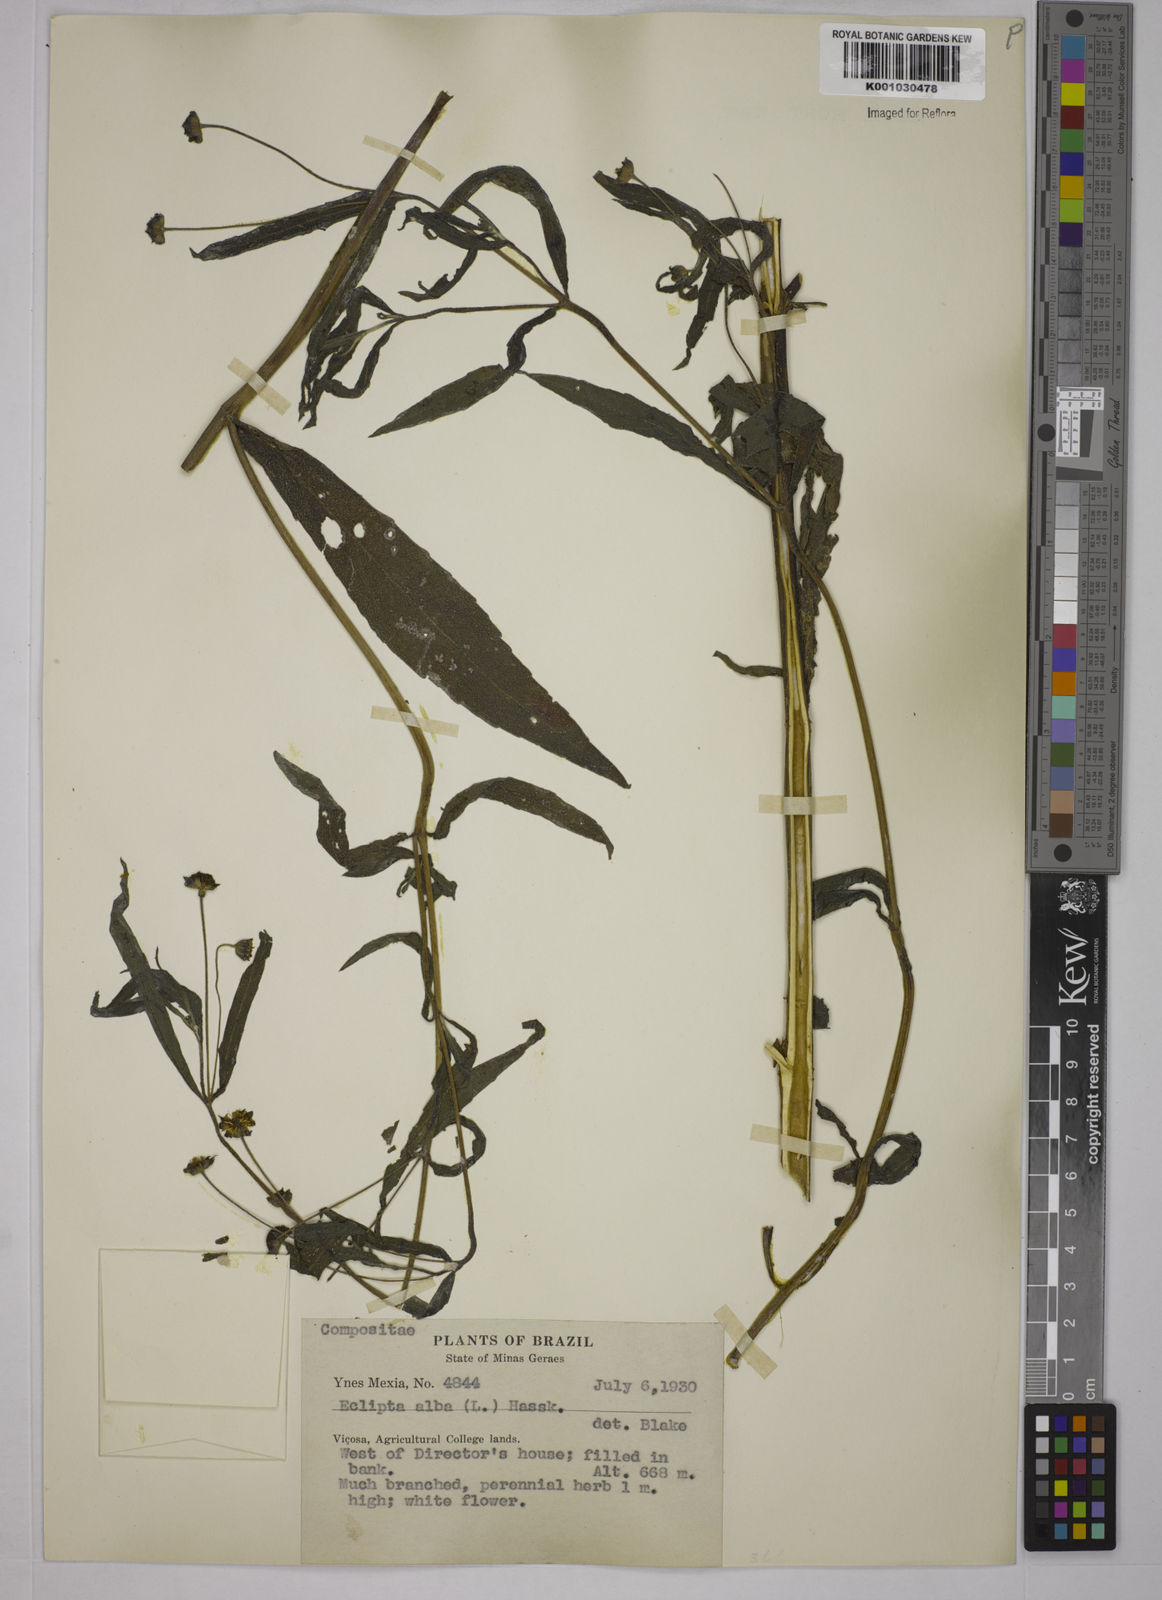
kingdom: Plantae
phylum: Tracheophyta
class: Magnoliopsida
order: Asterales
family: Asteraceae
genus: Eclipta
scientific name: Eclipta prostrata
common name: False daisy
